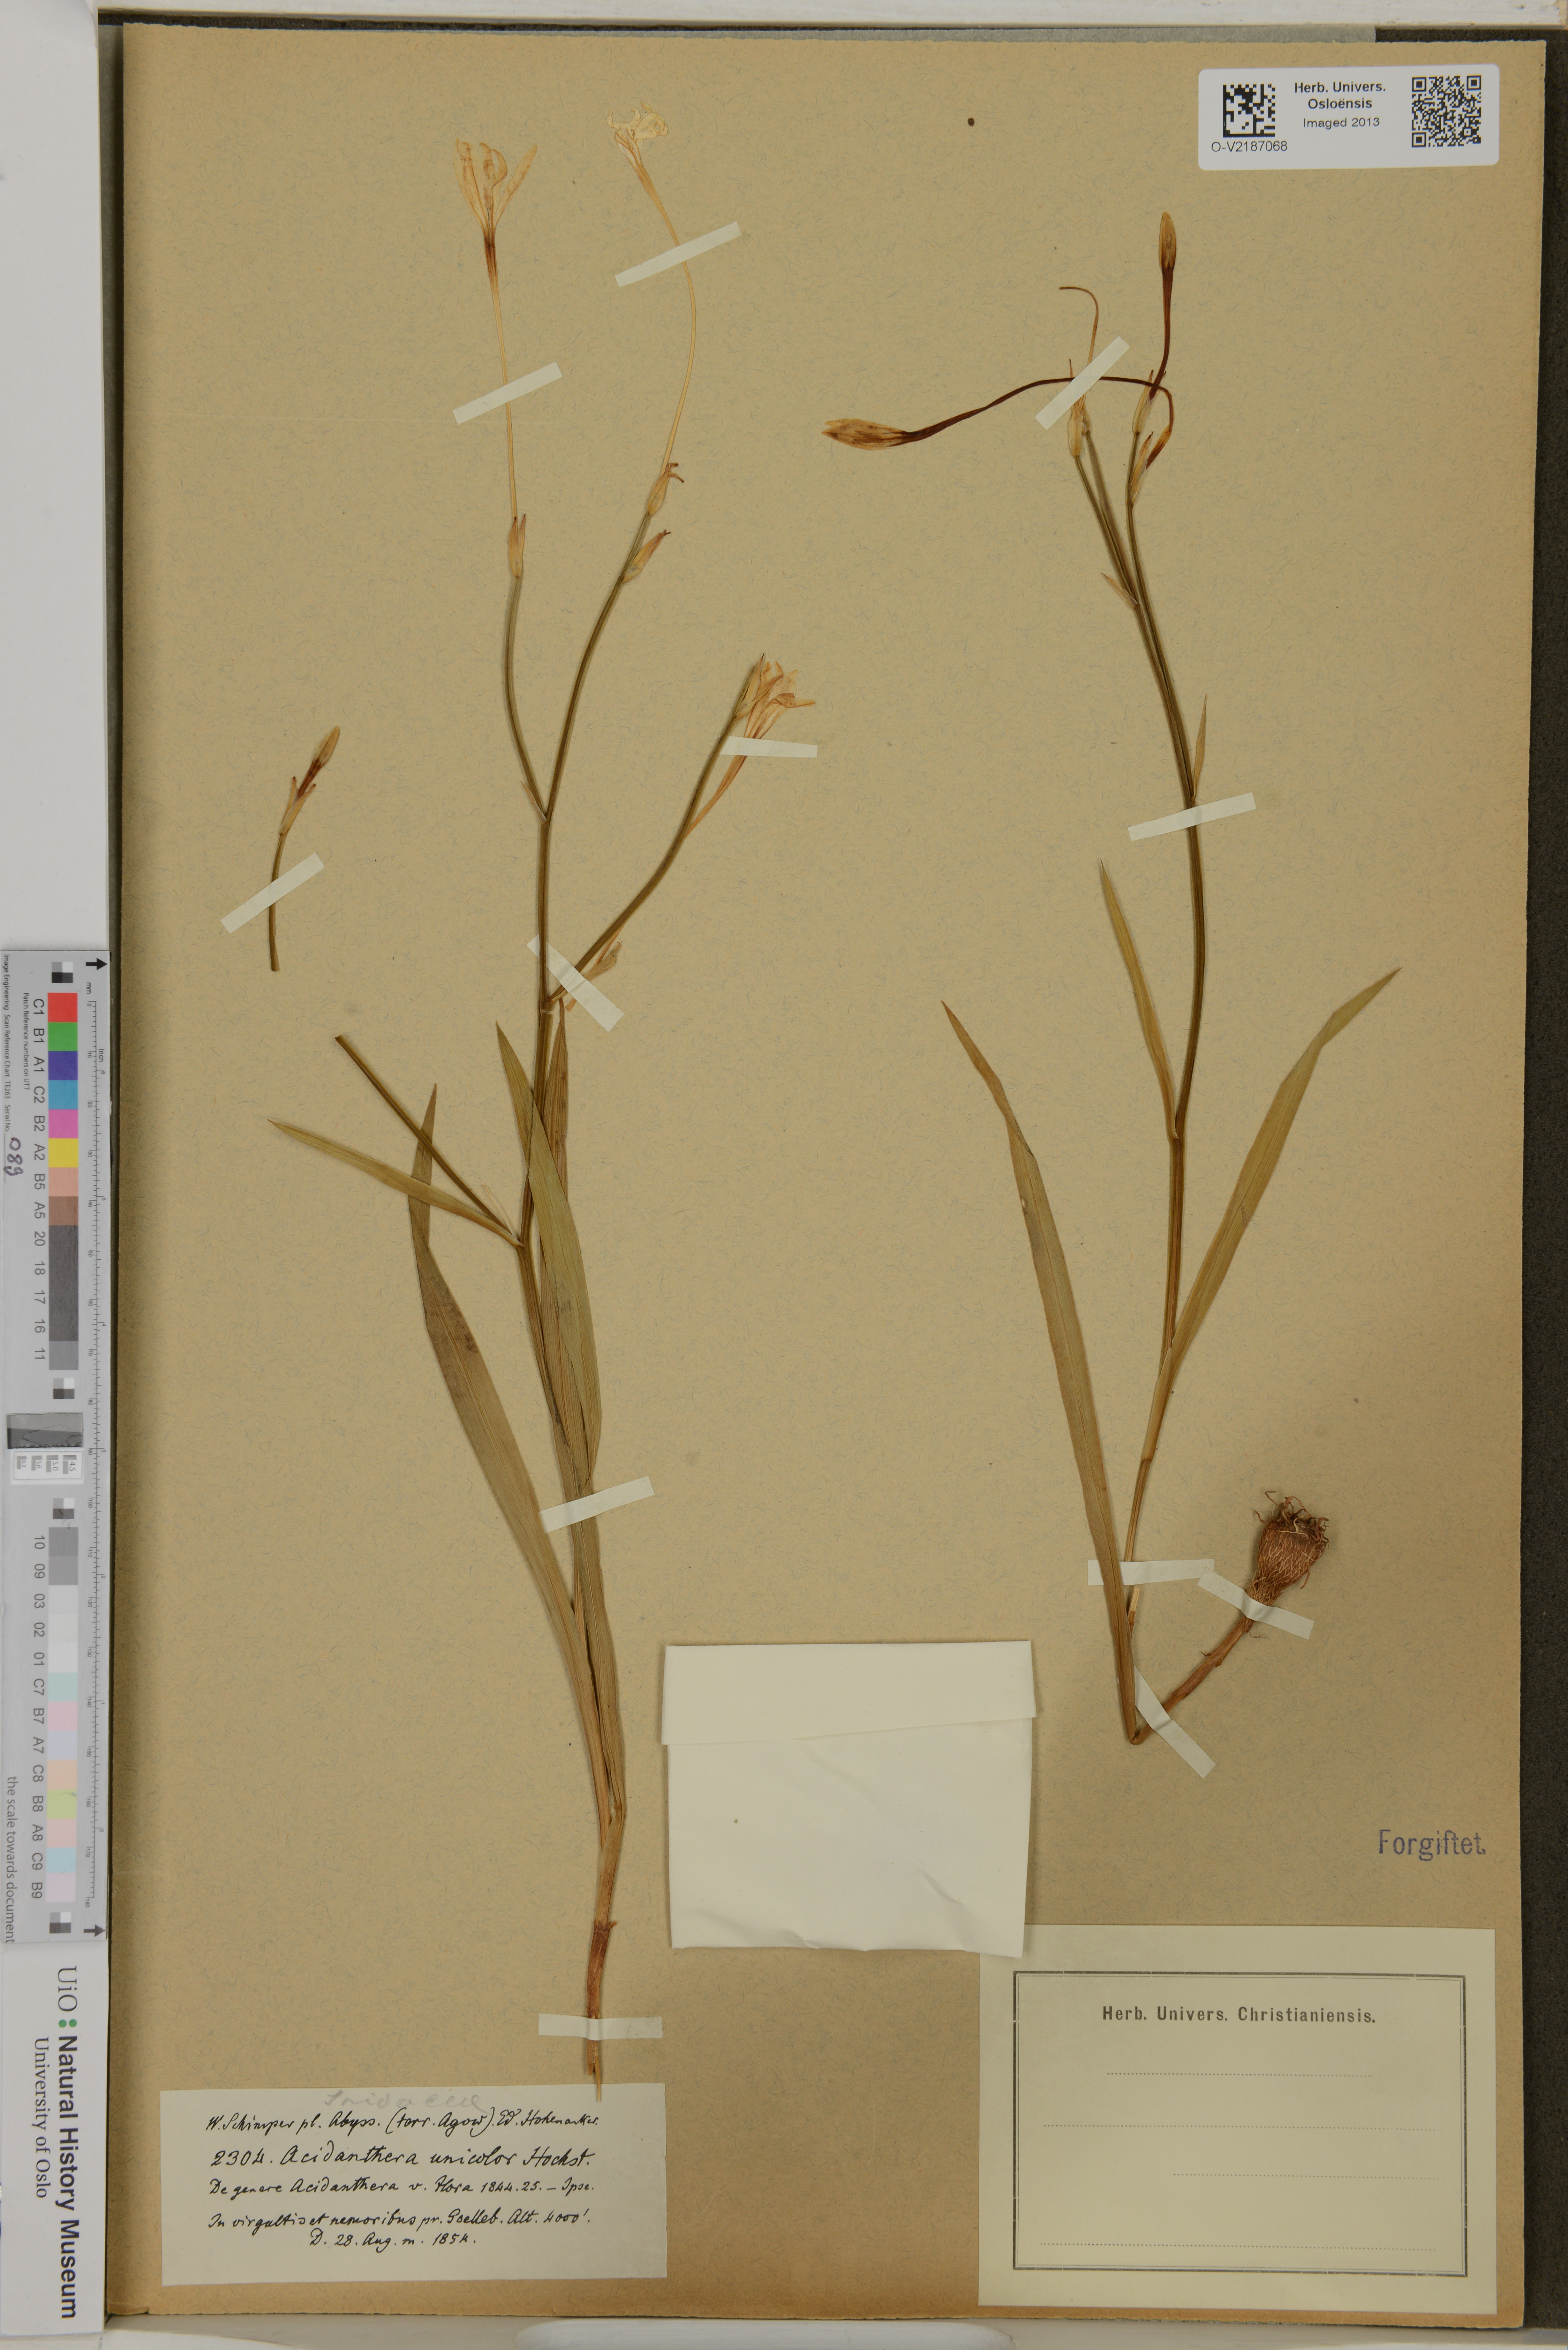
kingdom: Plantae
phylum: Tracheophyta
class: Liliopsida
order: Asparagales
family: Iridaceae
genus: Afrosolen
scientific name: Afrosolen schimperi
